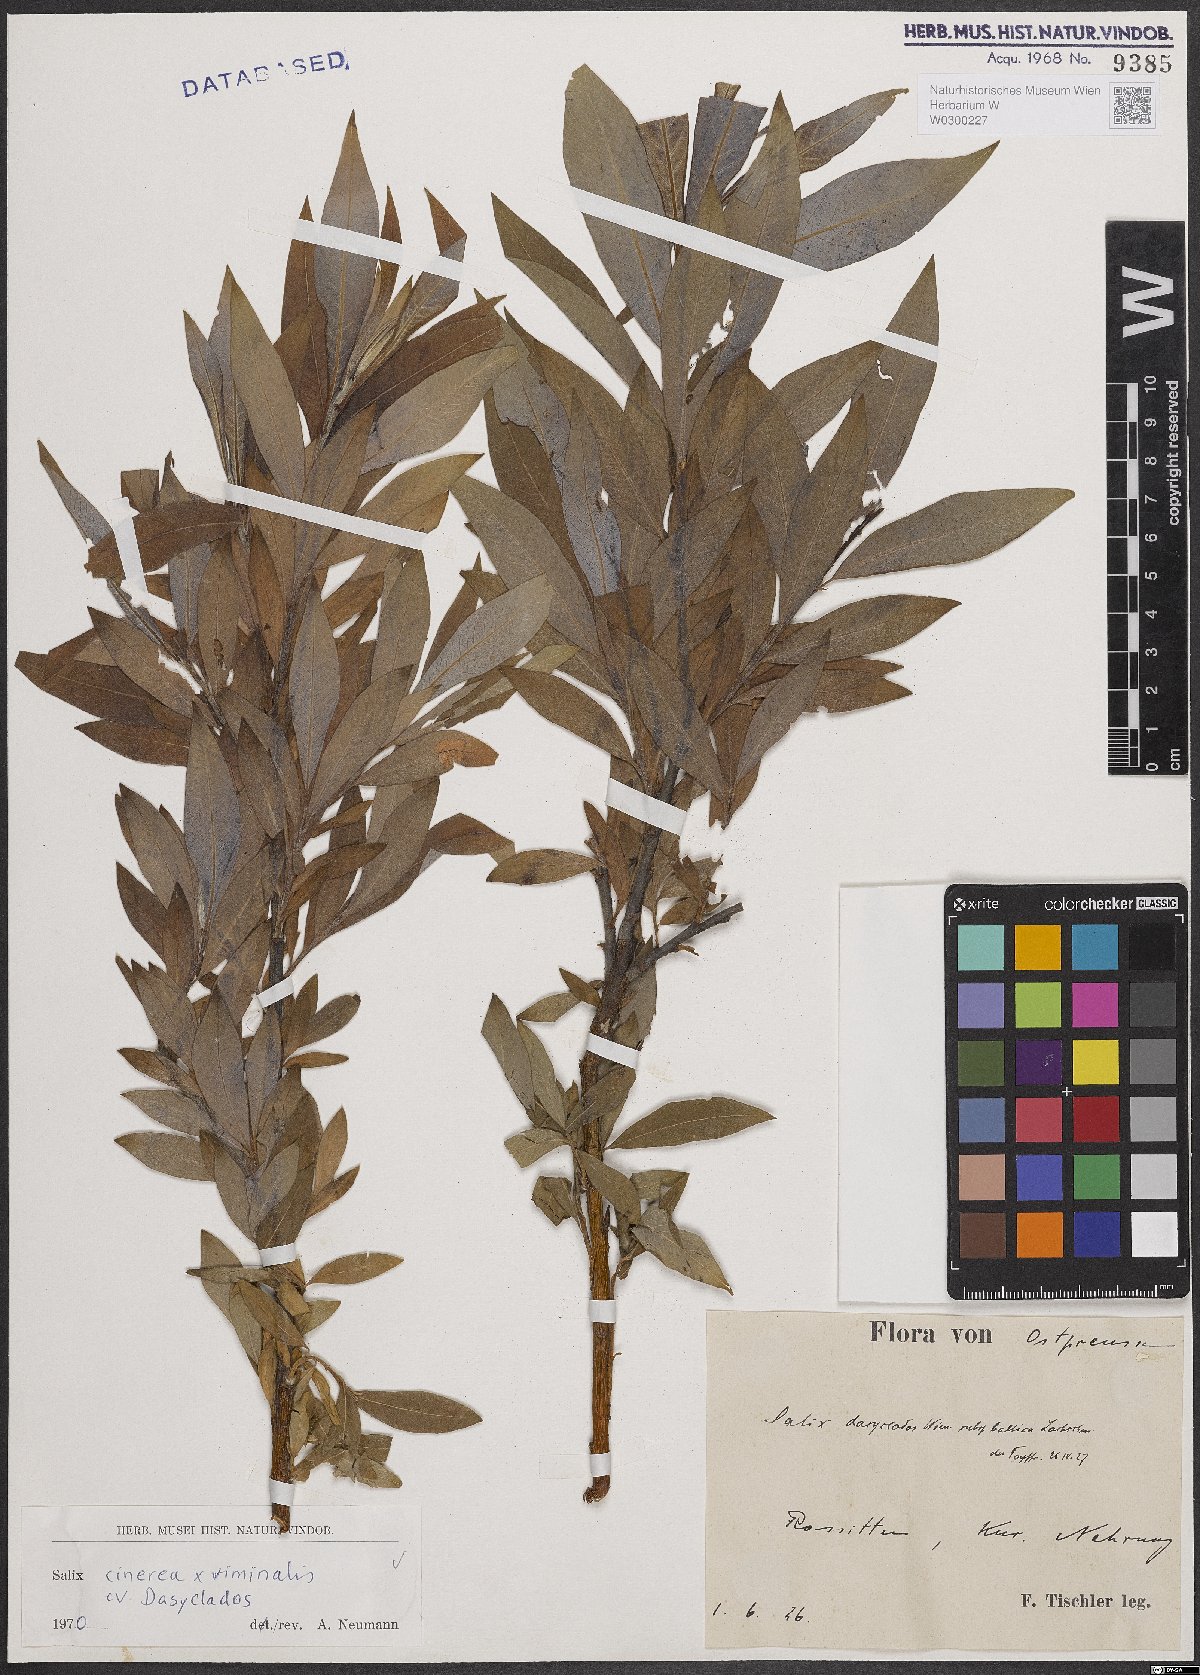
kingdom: Plantae
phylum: Tracheophyta
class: Magnoliopsida
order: Malpighiales
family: Salicaceae
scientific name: Salicaceae
